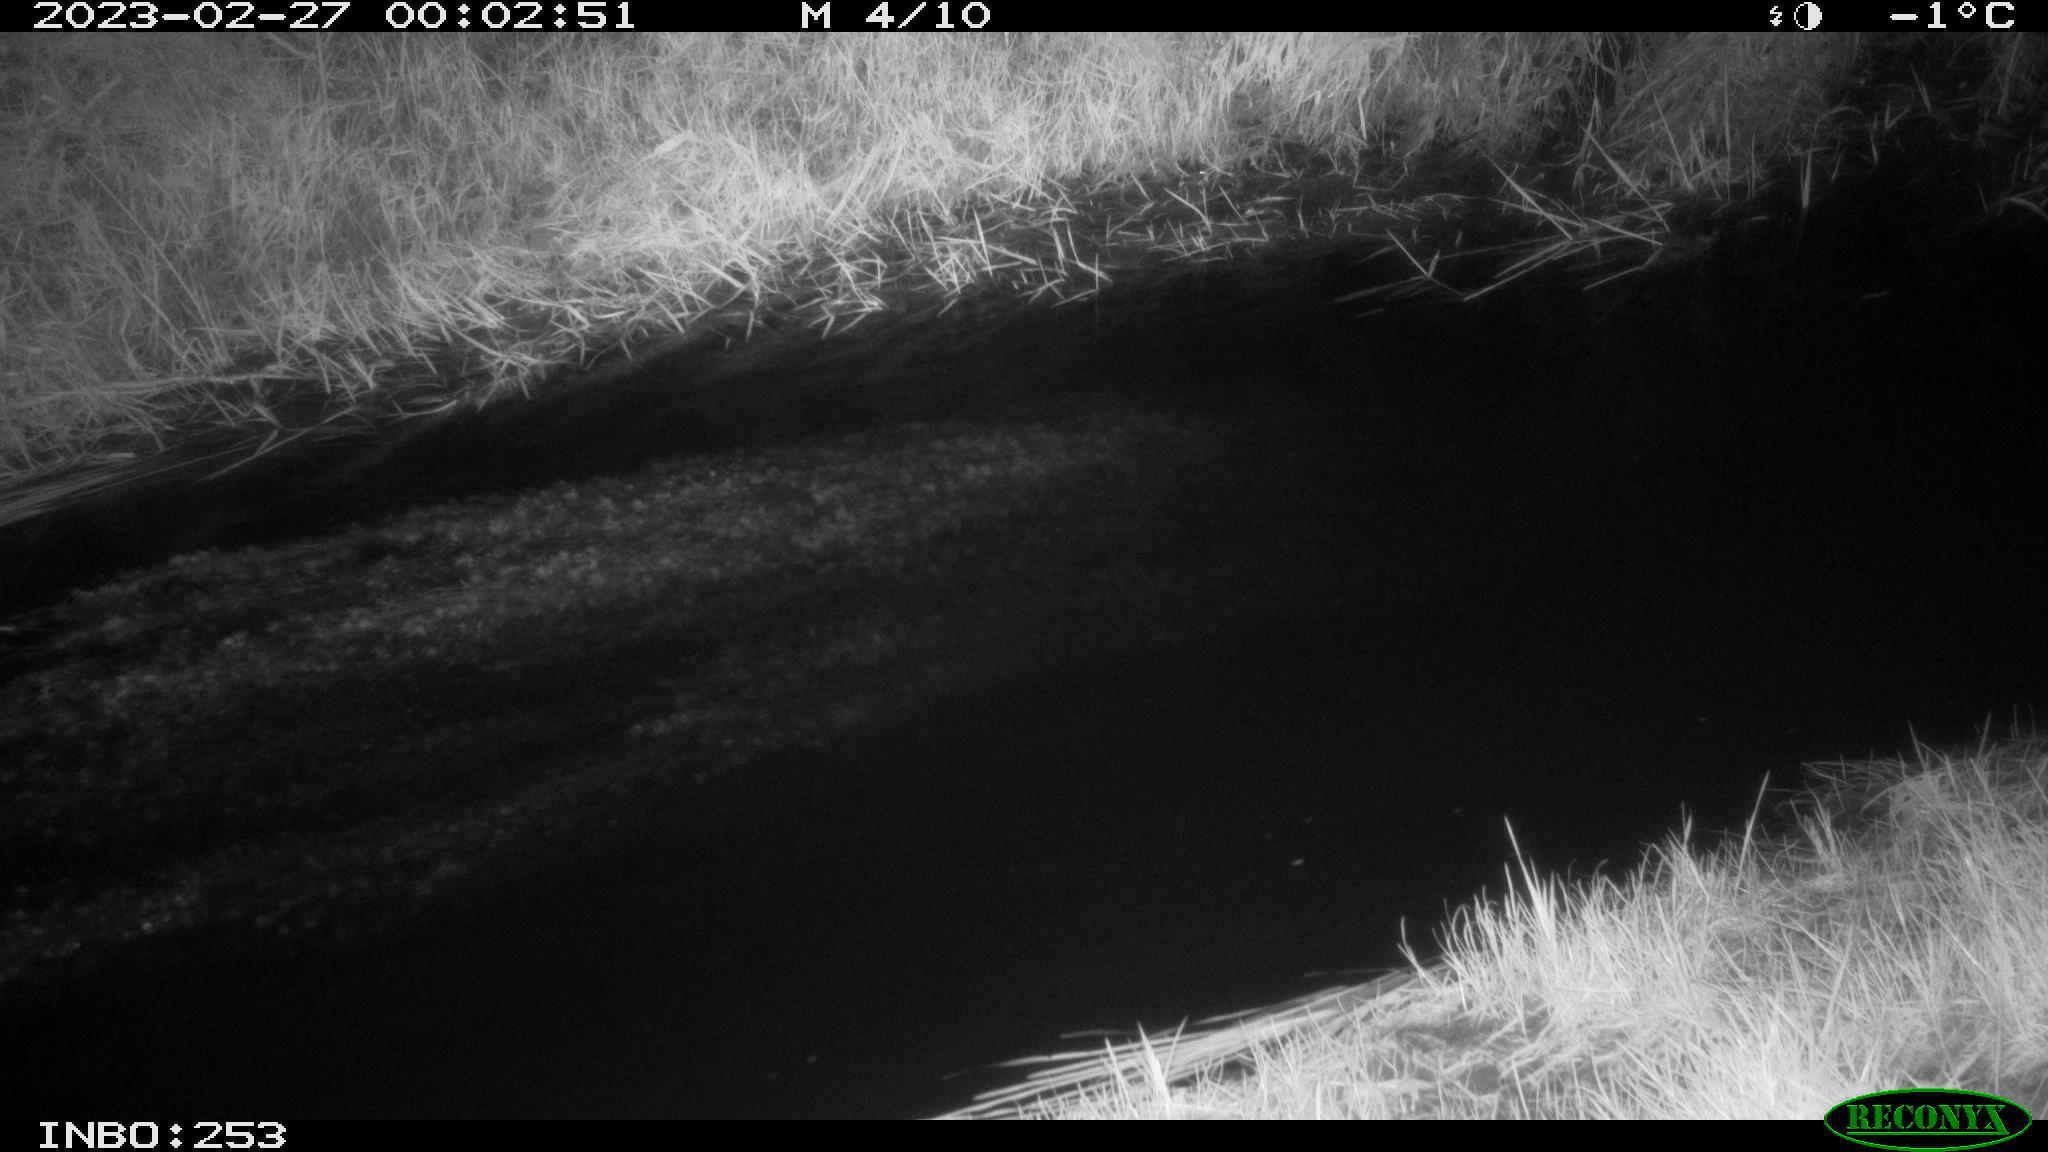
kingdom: Animalia
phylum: Chordata
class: Aves
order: Anseriformes
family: Anatidae
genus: Anas
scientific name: Anas
